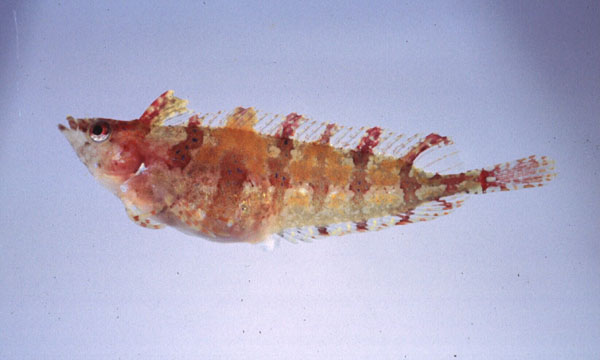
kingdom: Animalia
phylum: Chordata
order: Perciformes
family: Clinidae
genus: Pavoclinus
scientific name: Pavoclinus myae
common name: Mya's klipfish
